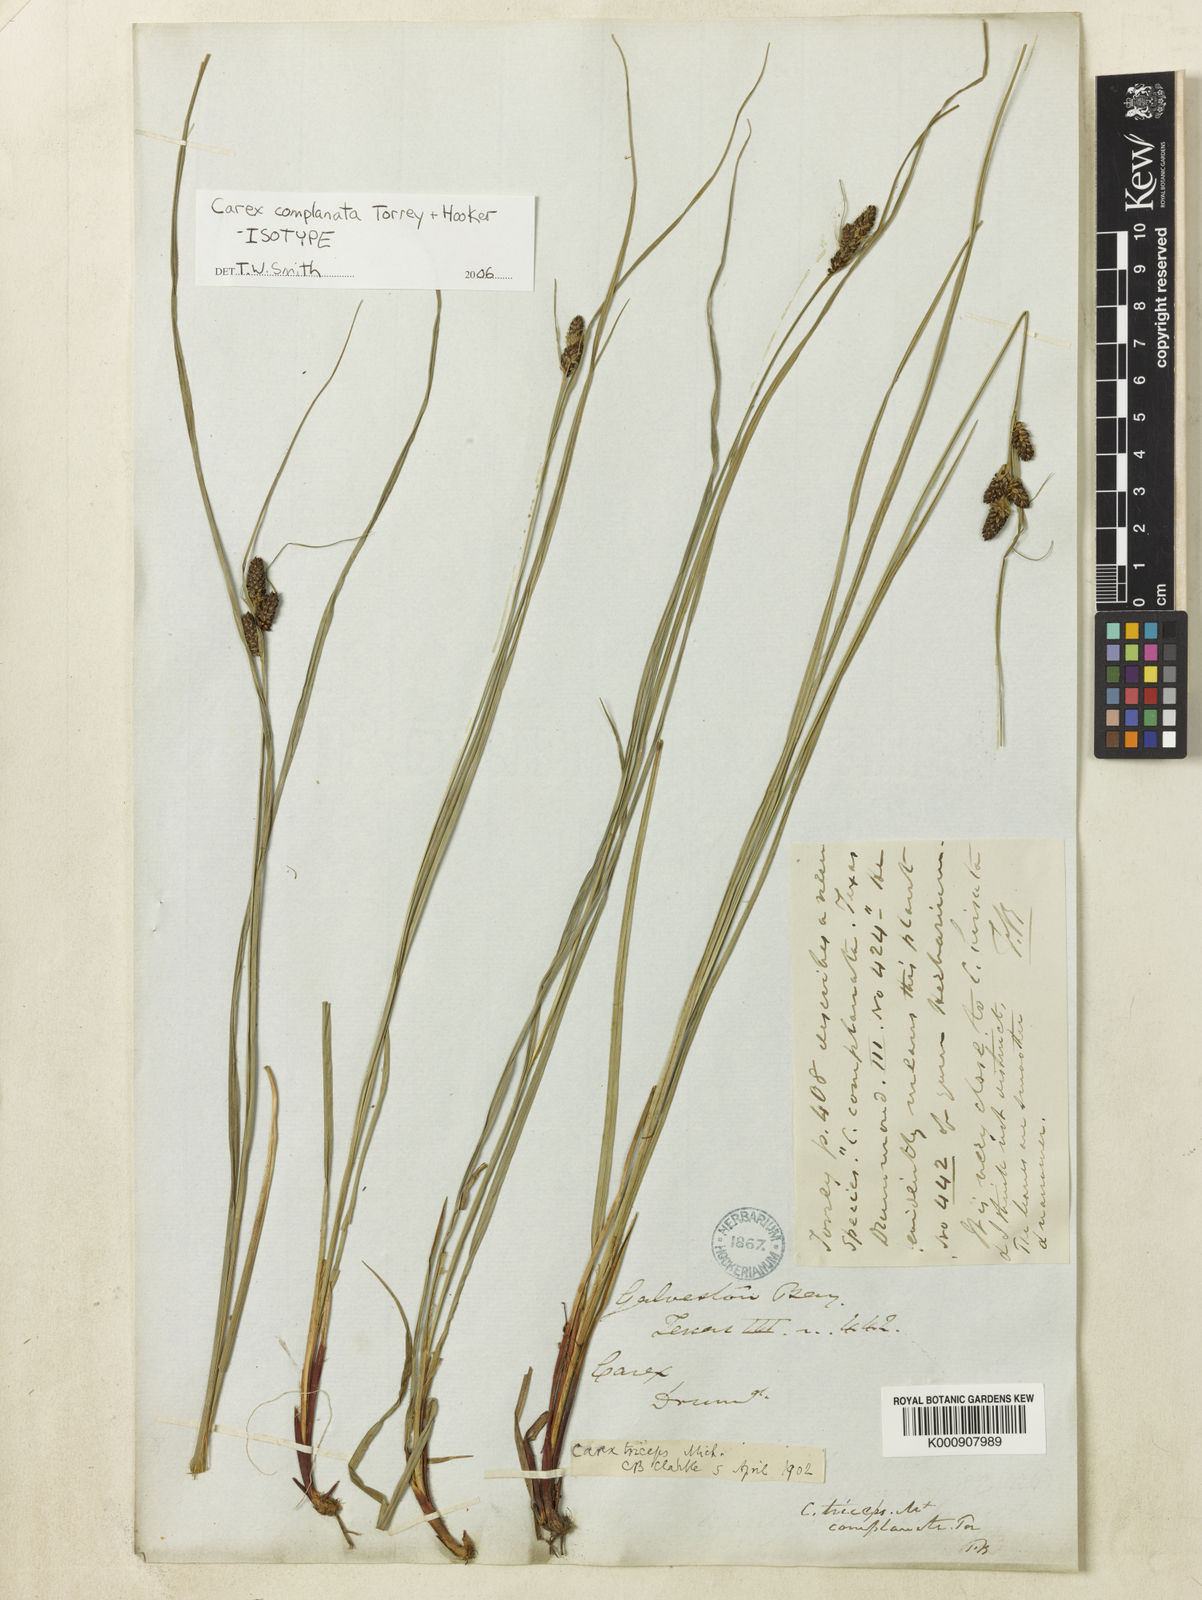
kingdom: Plantae
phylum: Tracheophyta
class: Liliopsida
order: Poales
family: Cyperaceae
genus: Carex
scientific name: Carex complanata
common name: Hirsute sedge
